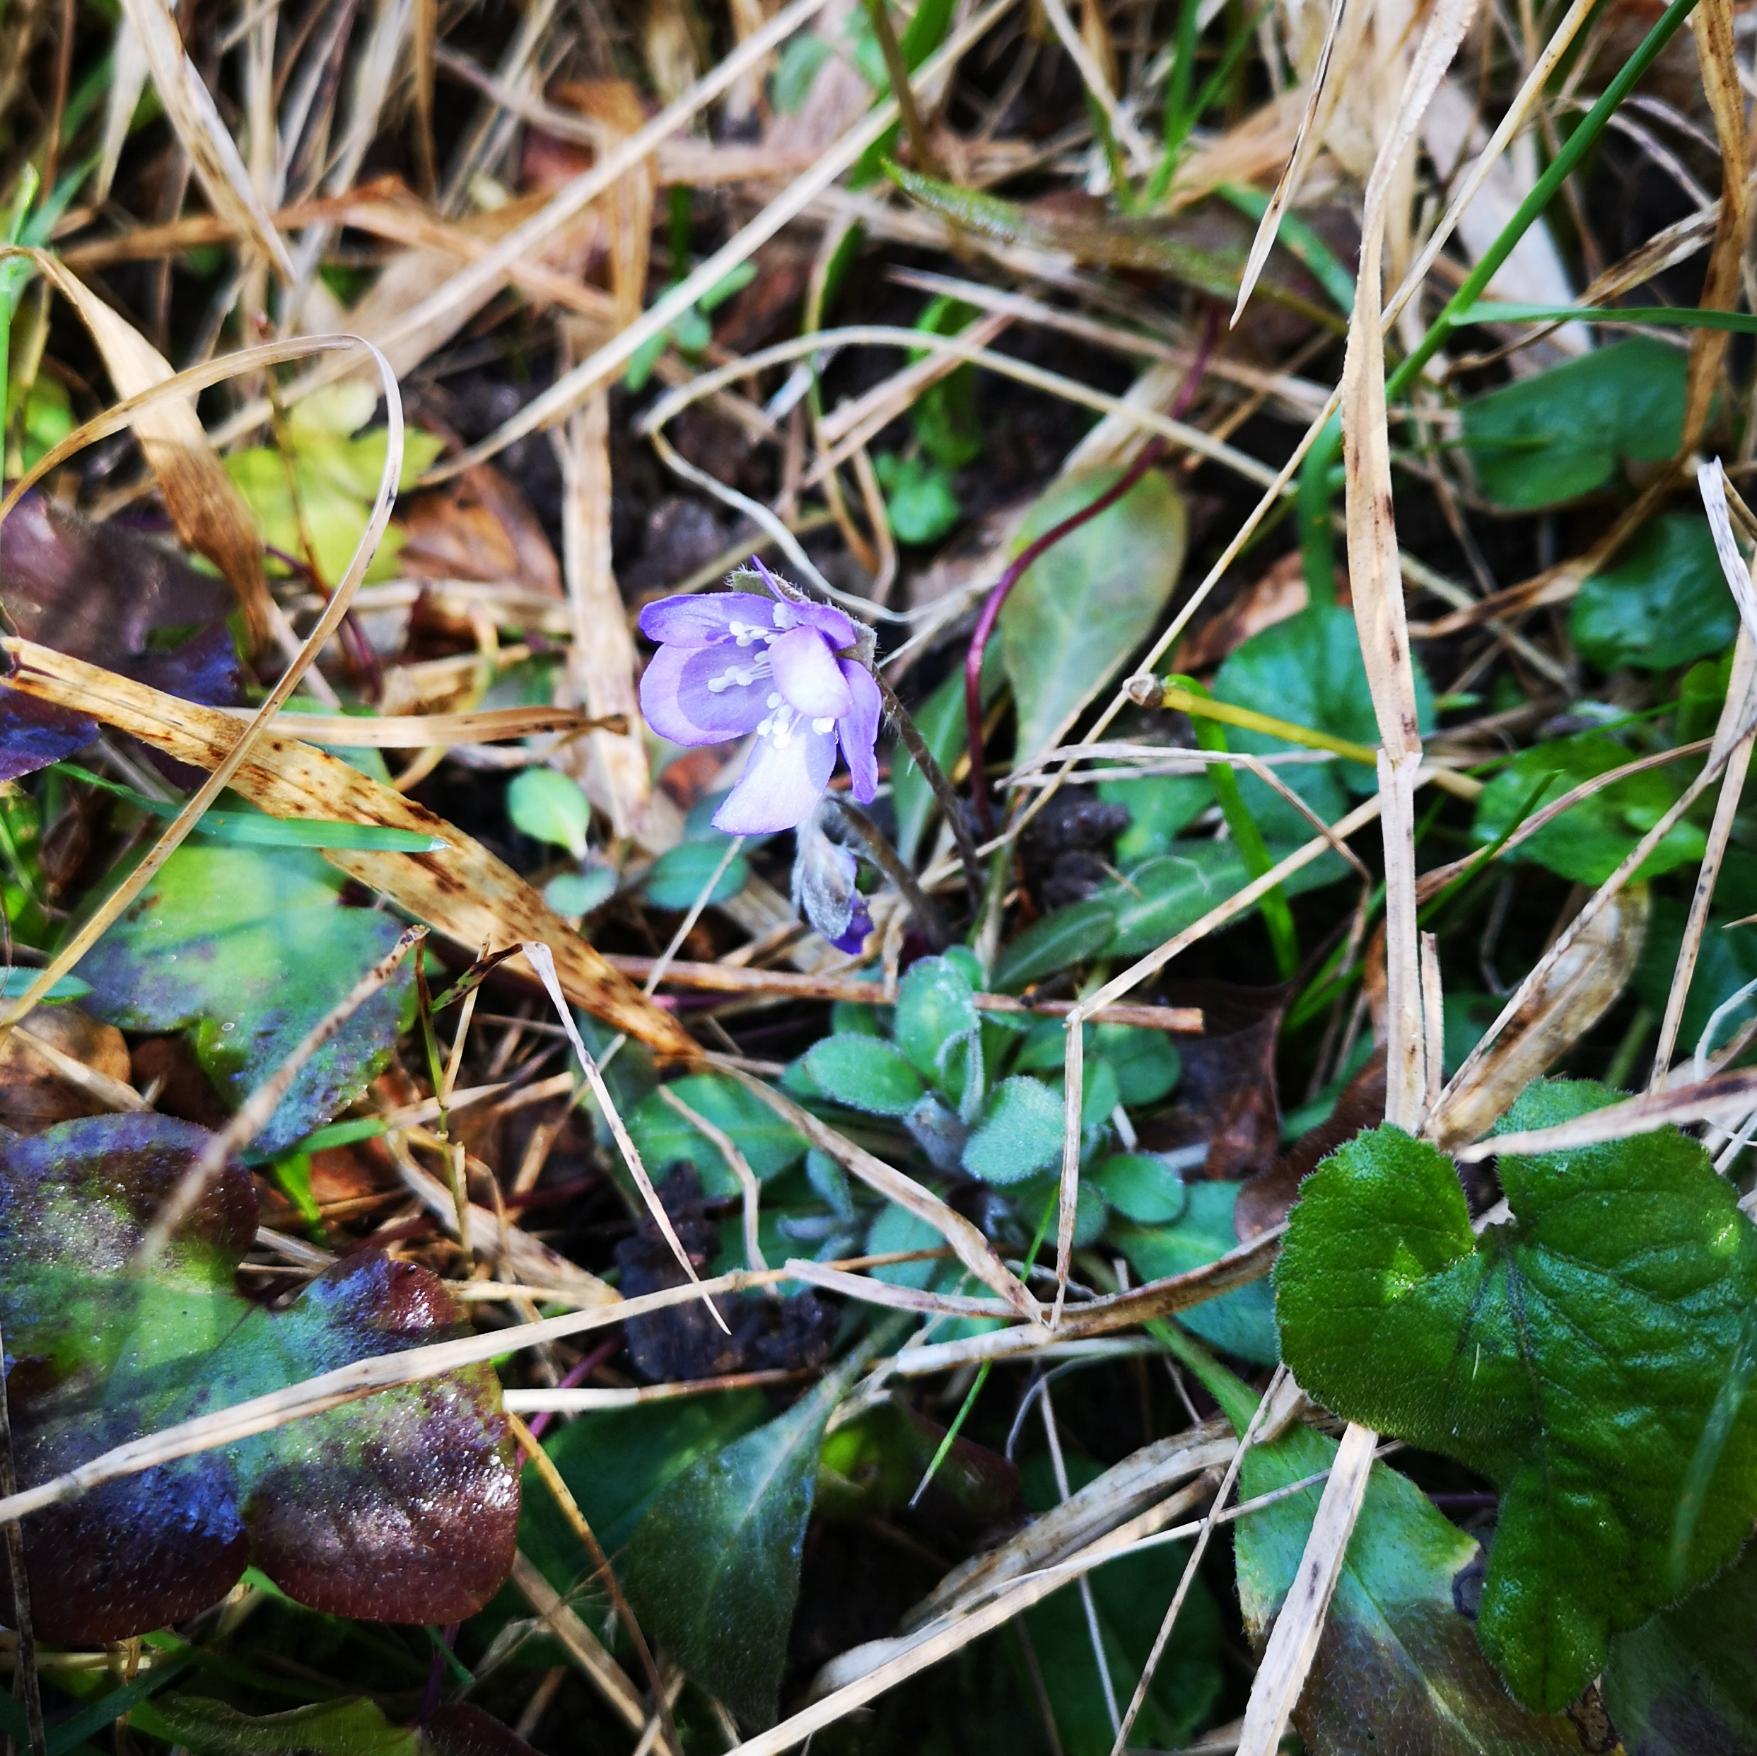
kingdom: Plantae
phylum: Tracheophyta
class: Magnoliopsida
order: Ranunculales
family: Ranunculaceae
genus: Hepatica
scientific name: Hepatica nobilis
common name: Blå anemone
